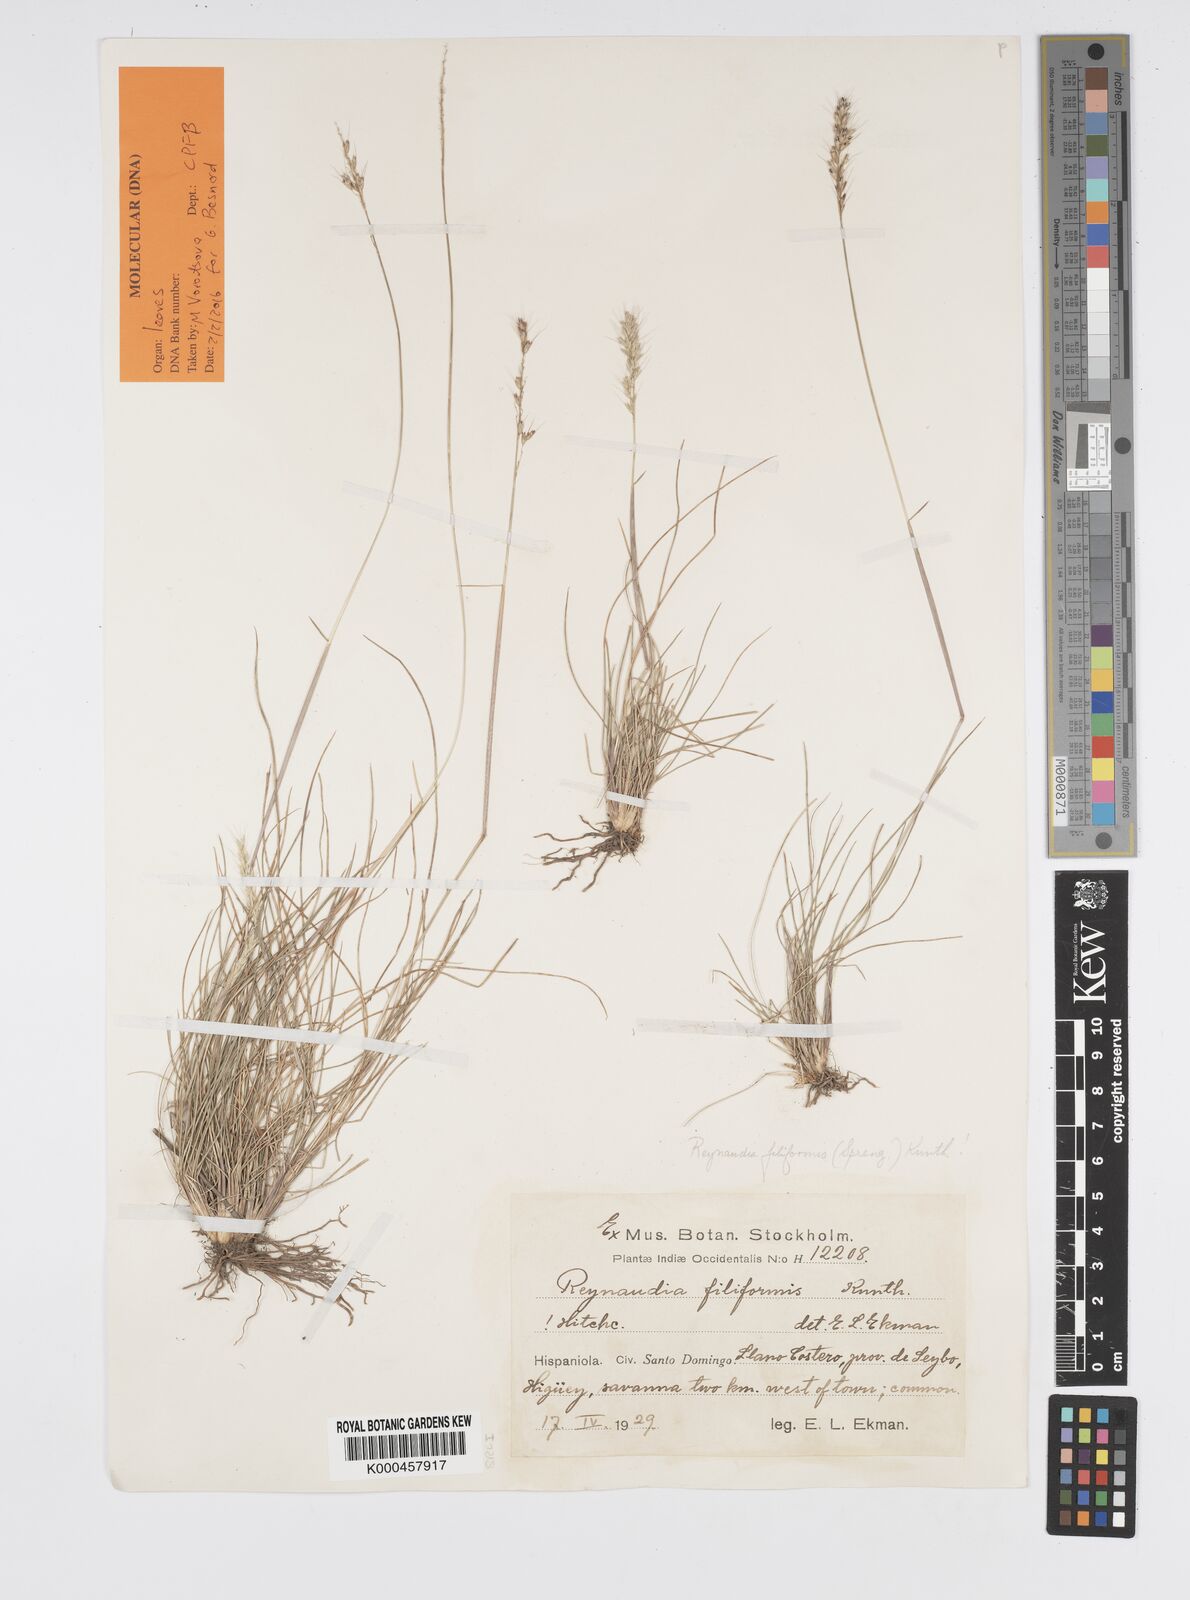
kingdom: Plantae
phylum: Tracheophyta
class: Liliopsida
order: Poales
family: Poaceae
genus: Reynaudia
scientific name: Reynaudia filiformis
